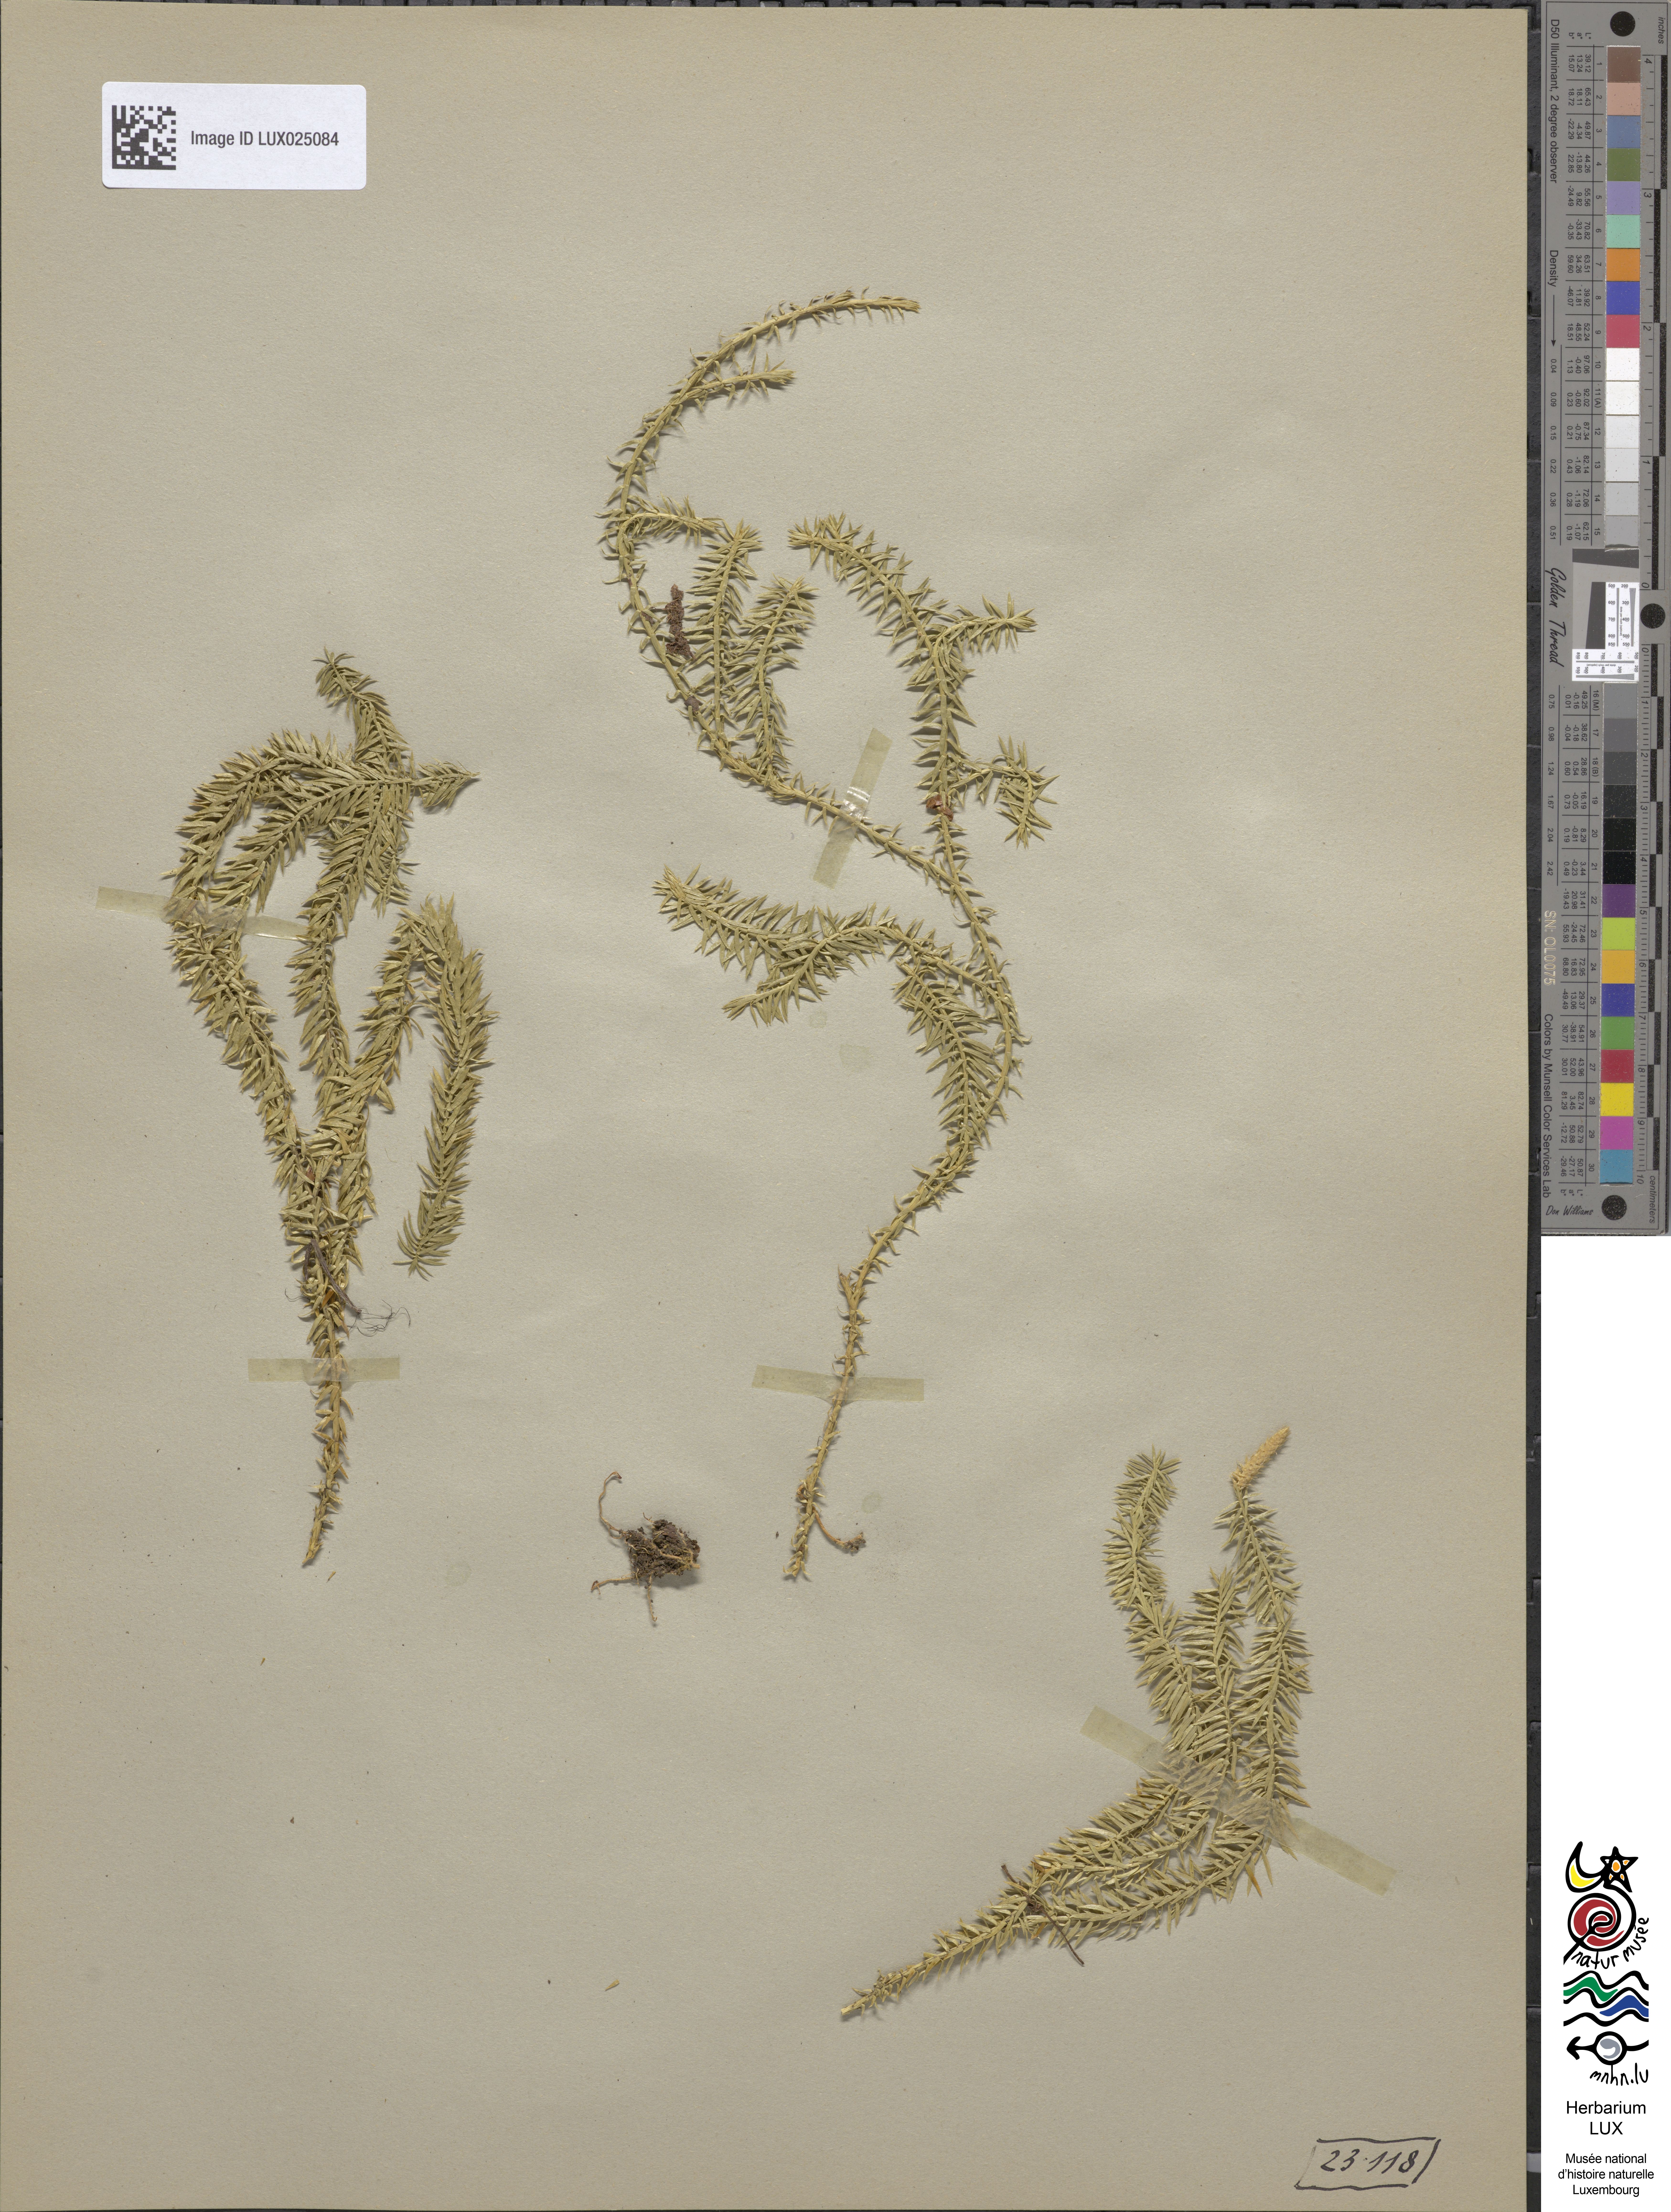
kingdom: Plantae
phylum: Tracheophyta
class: Lycopodiopsida
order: Lycopodiales
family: Lycopodiaceae
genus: Spinulum
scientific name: Spinulum annotinum
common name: Interrupted club-moss
